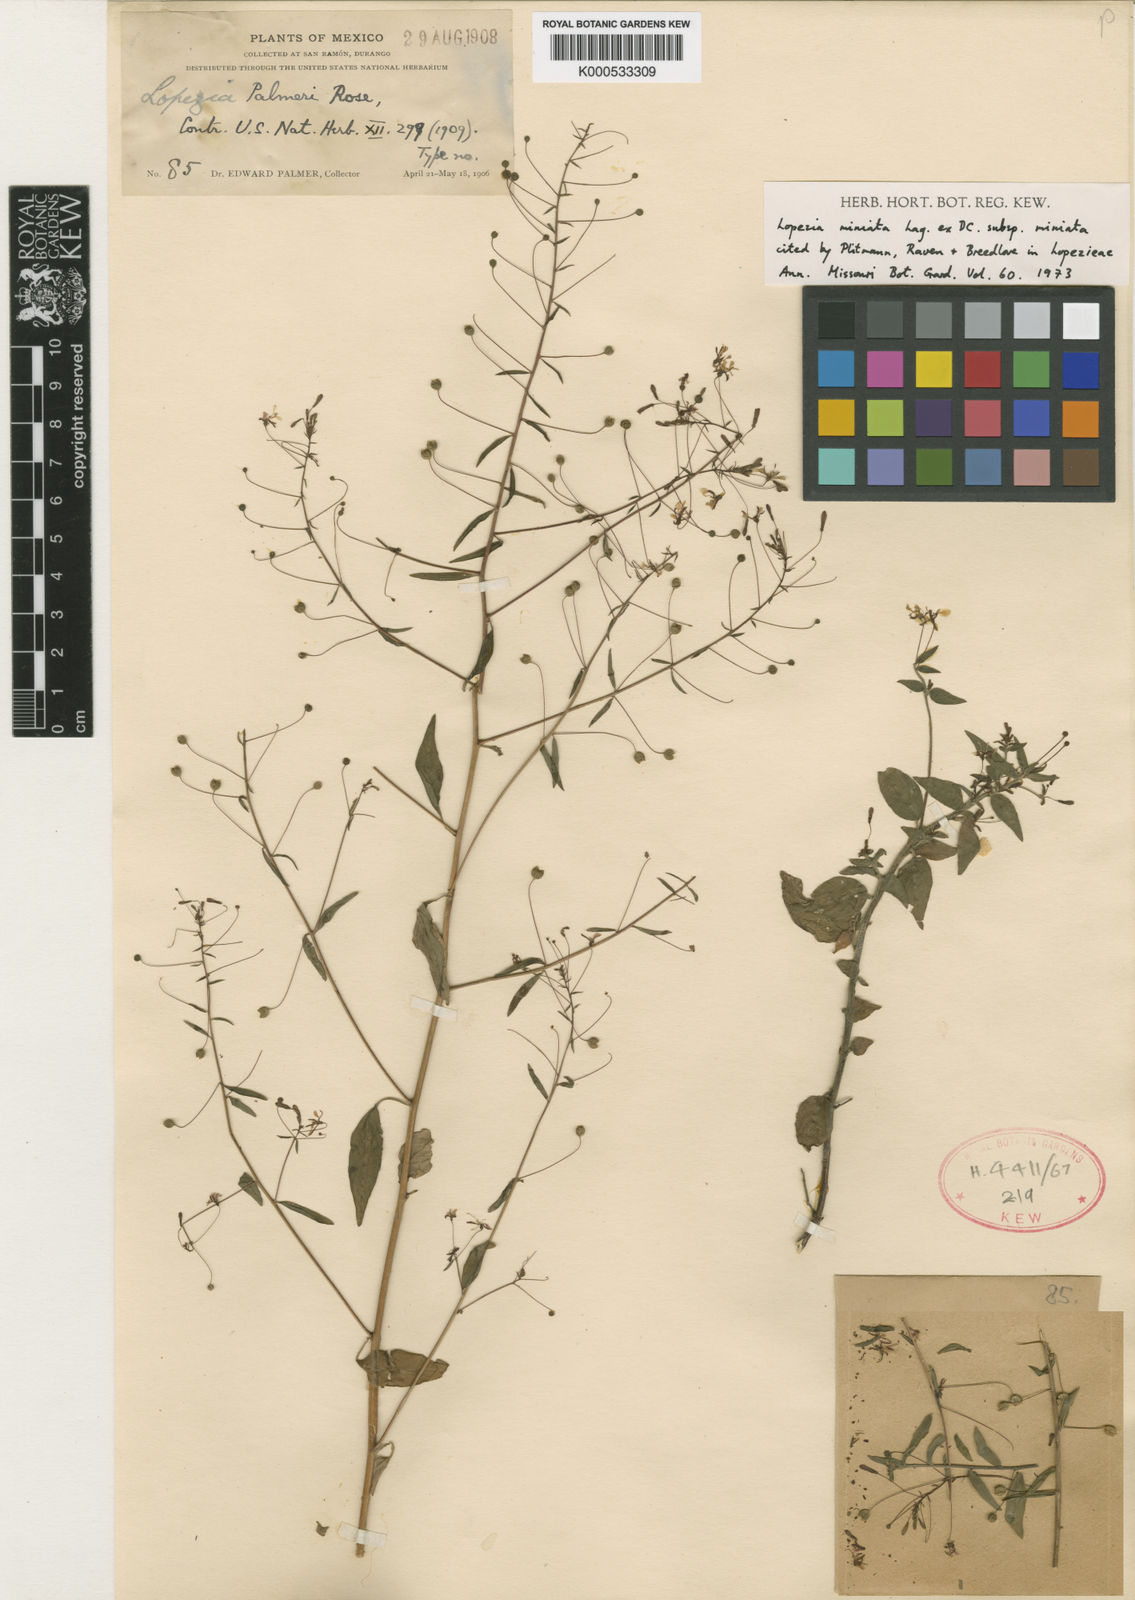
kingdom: Plantae
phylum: Tracheophyta
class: Magnoliopsida
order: Myrtales
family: Onagraceae
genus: Lopezia
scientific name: Lopezia miniata
